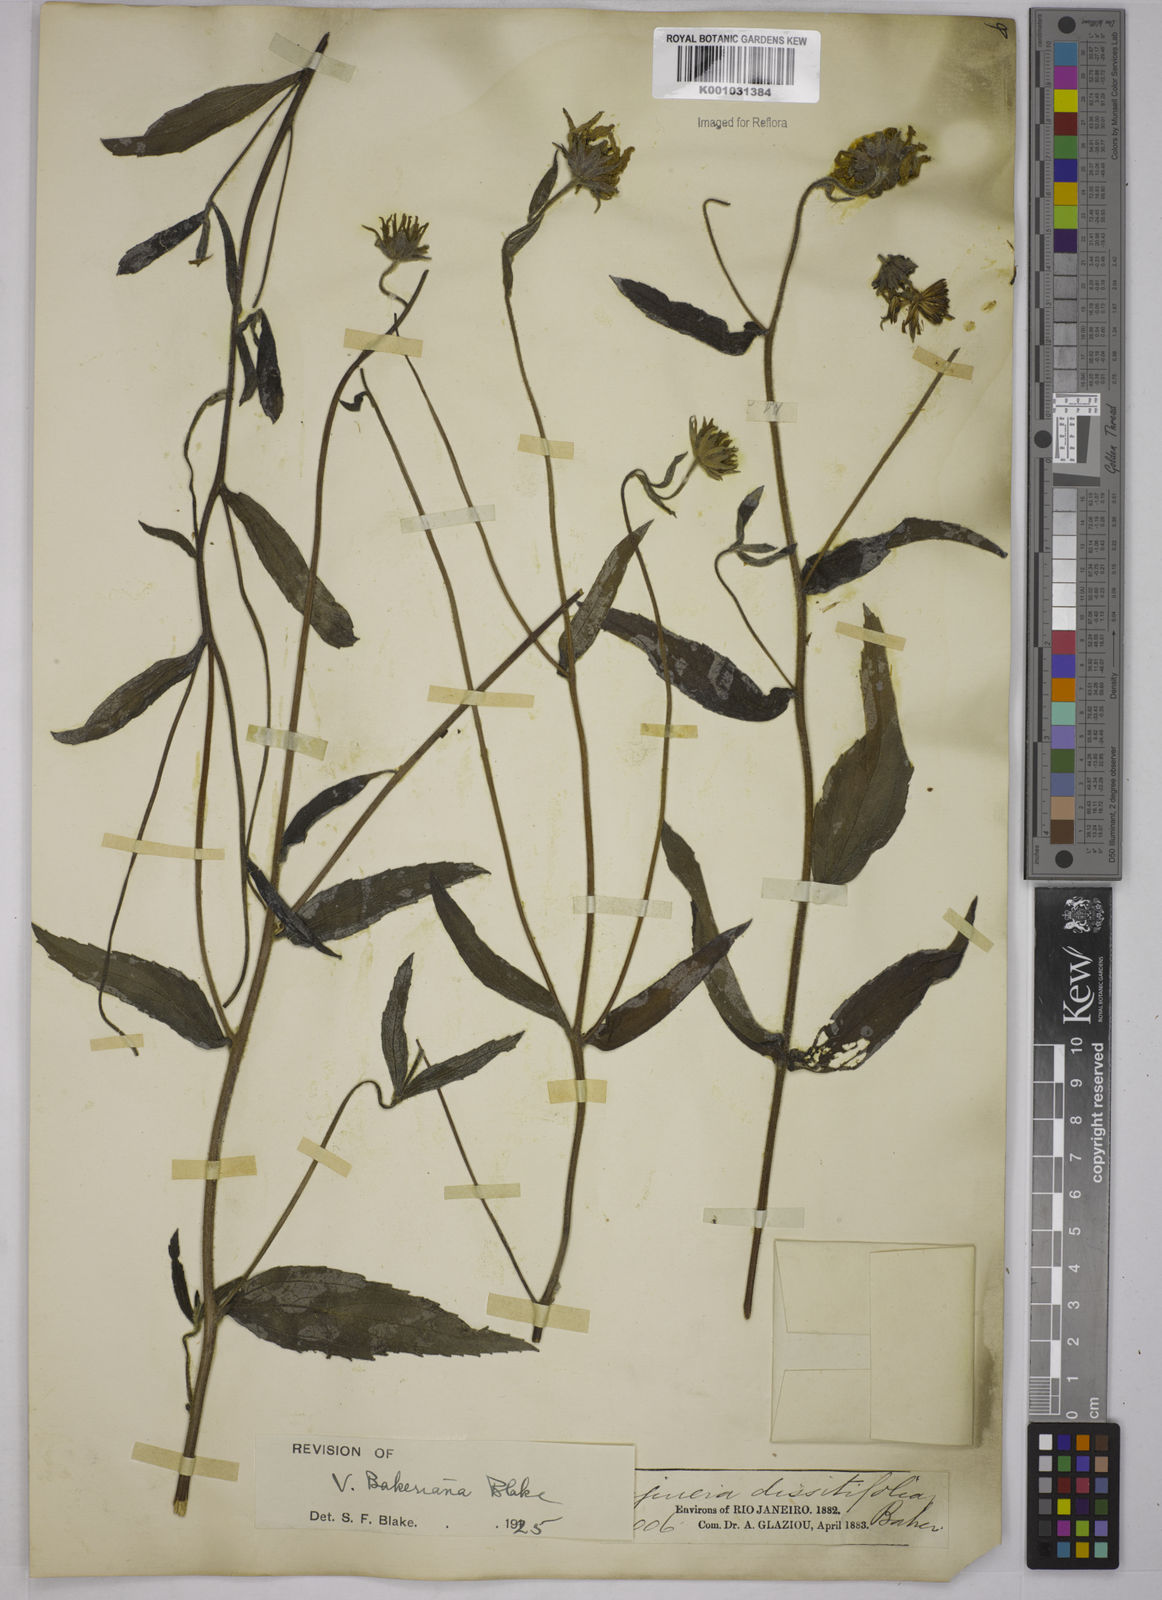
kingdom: Plantae
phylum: Tracheophyta
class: Magnoliopsida
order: Asterales
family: Asteraceae
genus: Aldama
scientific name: Aldama bakeriana
